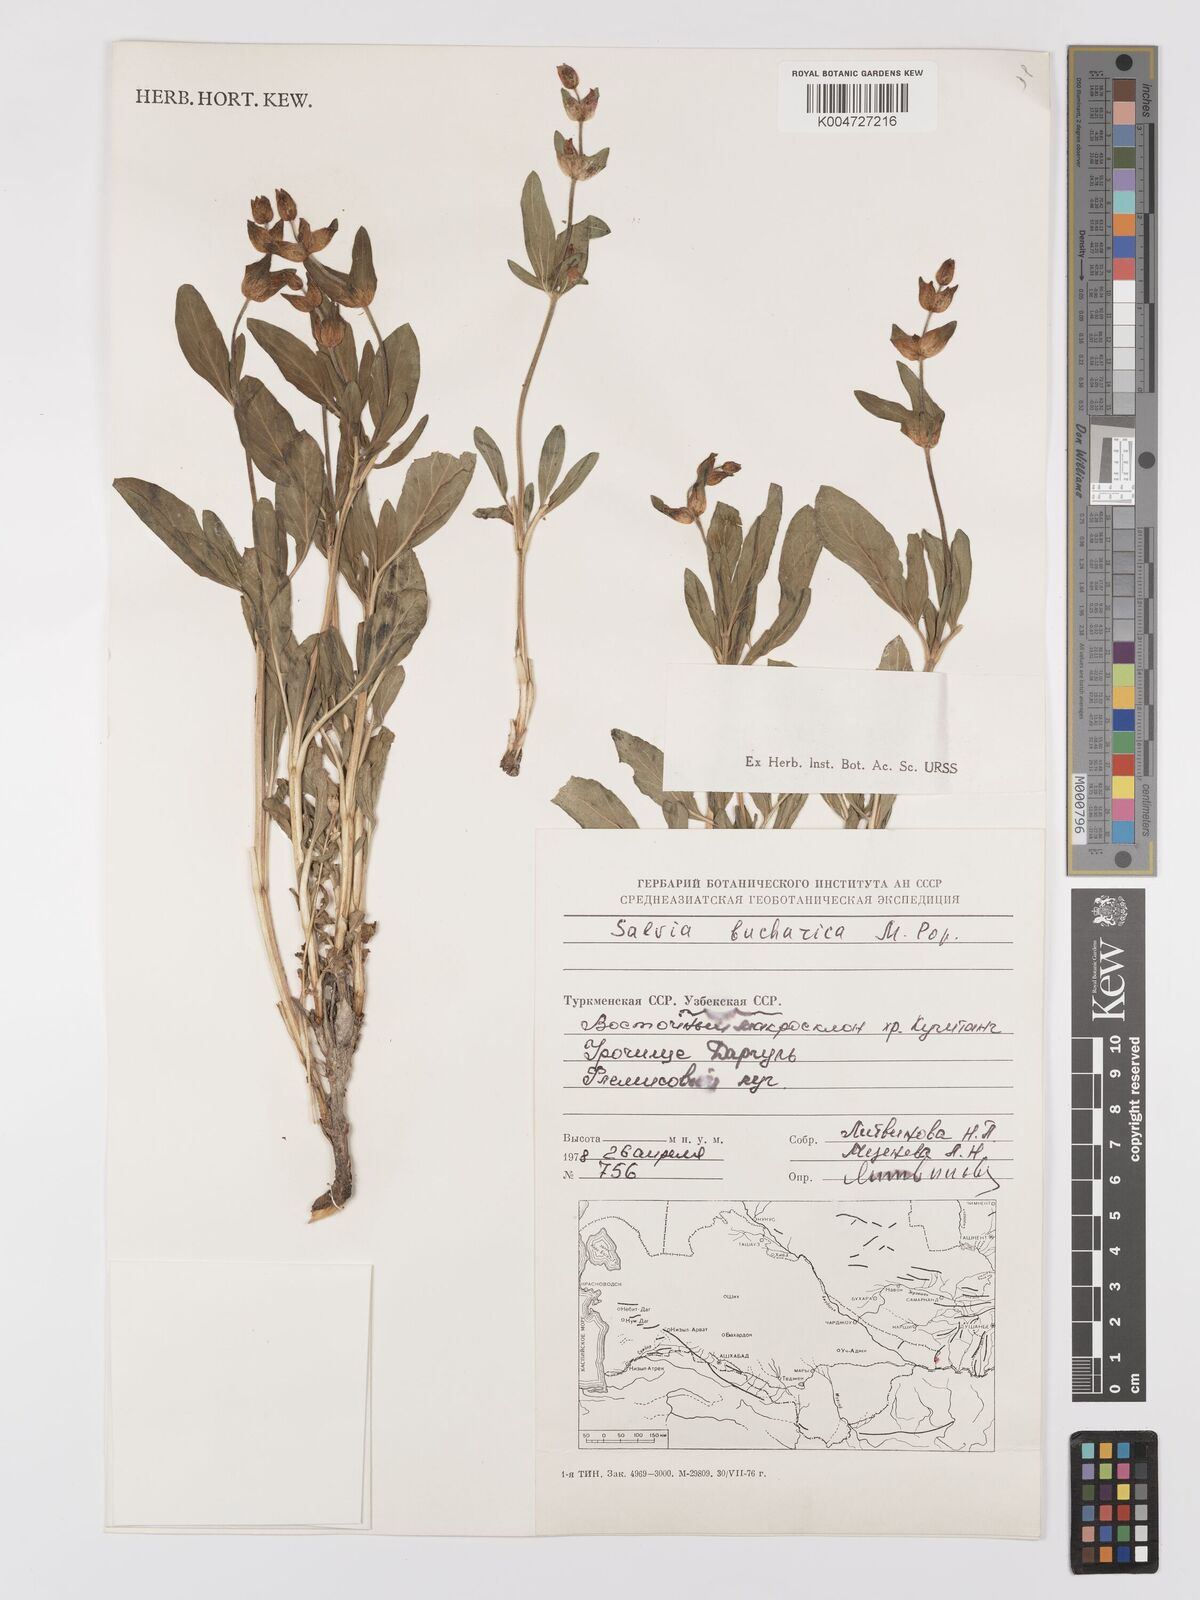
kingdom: Plantae
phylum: Tracheophyta
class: Magnoliopsida
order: Lamiales
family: Lamiaceae
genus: Salvia
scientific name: Salvia bucharica
